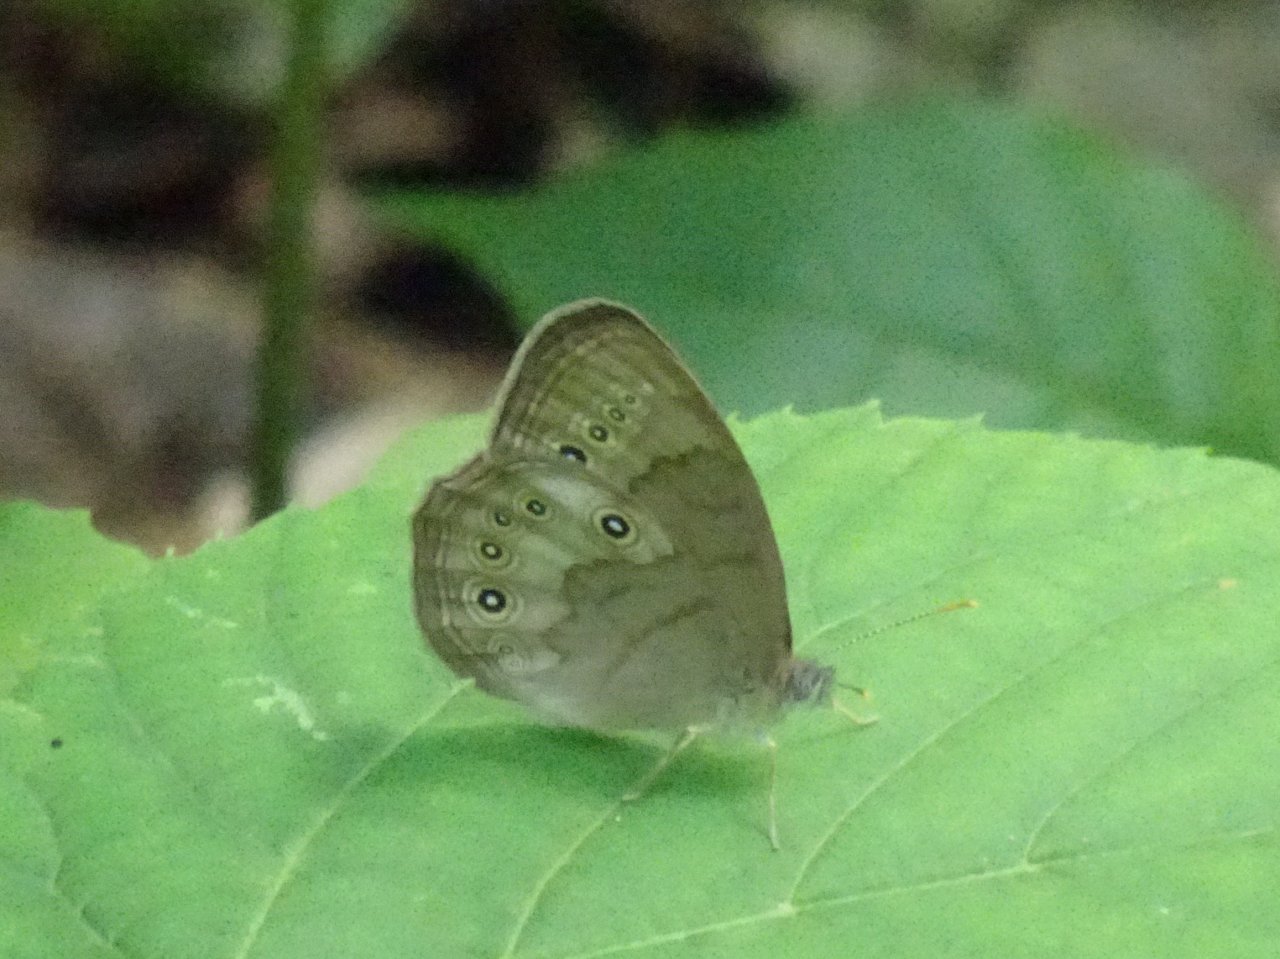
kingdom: Animalia
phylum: Arthropoda
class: Insecta
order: Lepidoptera
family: Nymphalidae
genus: Lethe
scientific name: Lethe eurydice
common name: Appalachian Eyed Brown
